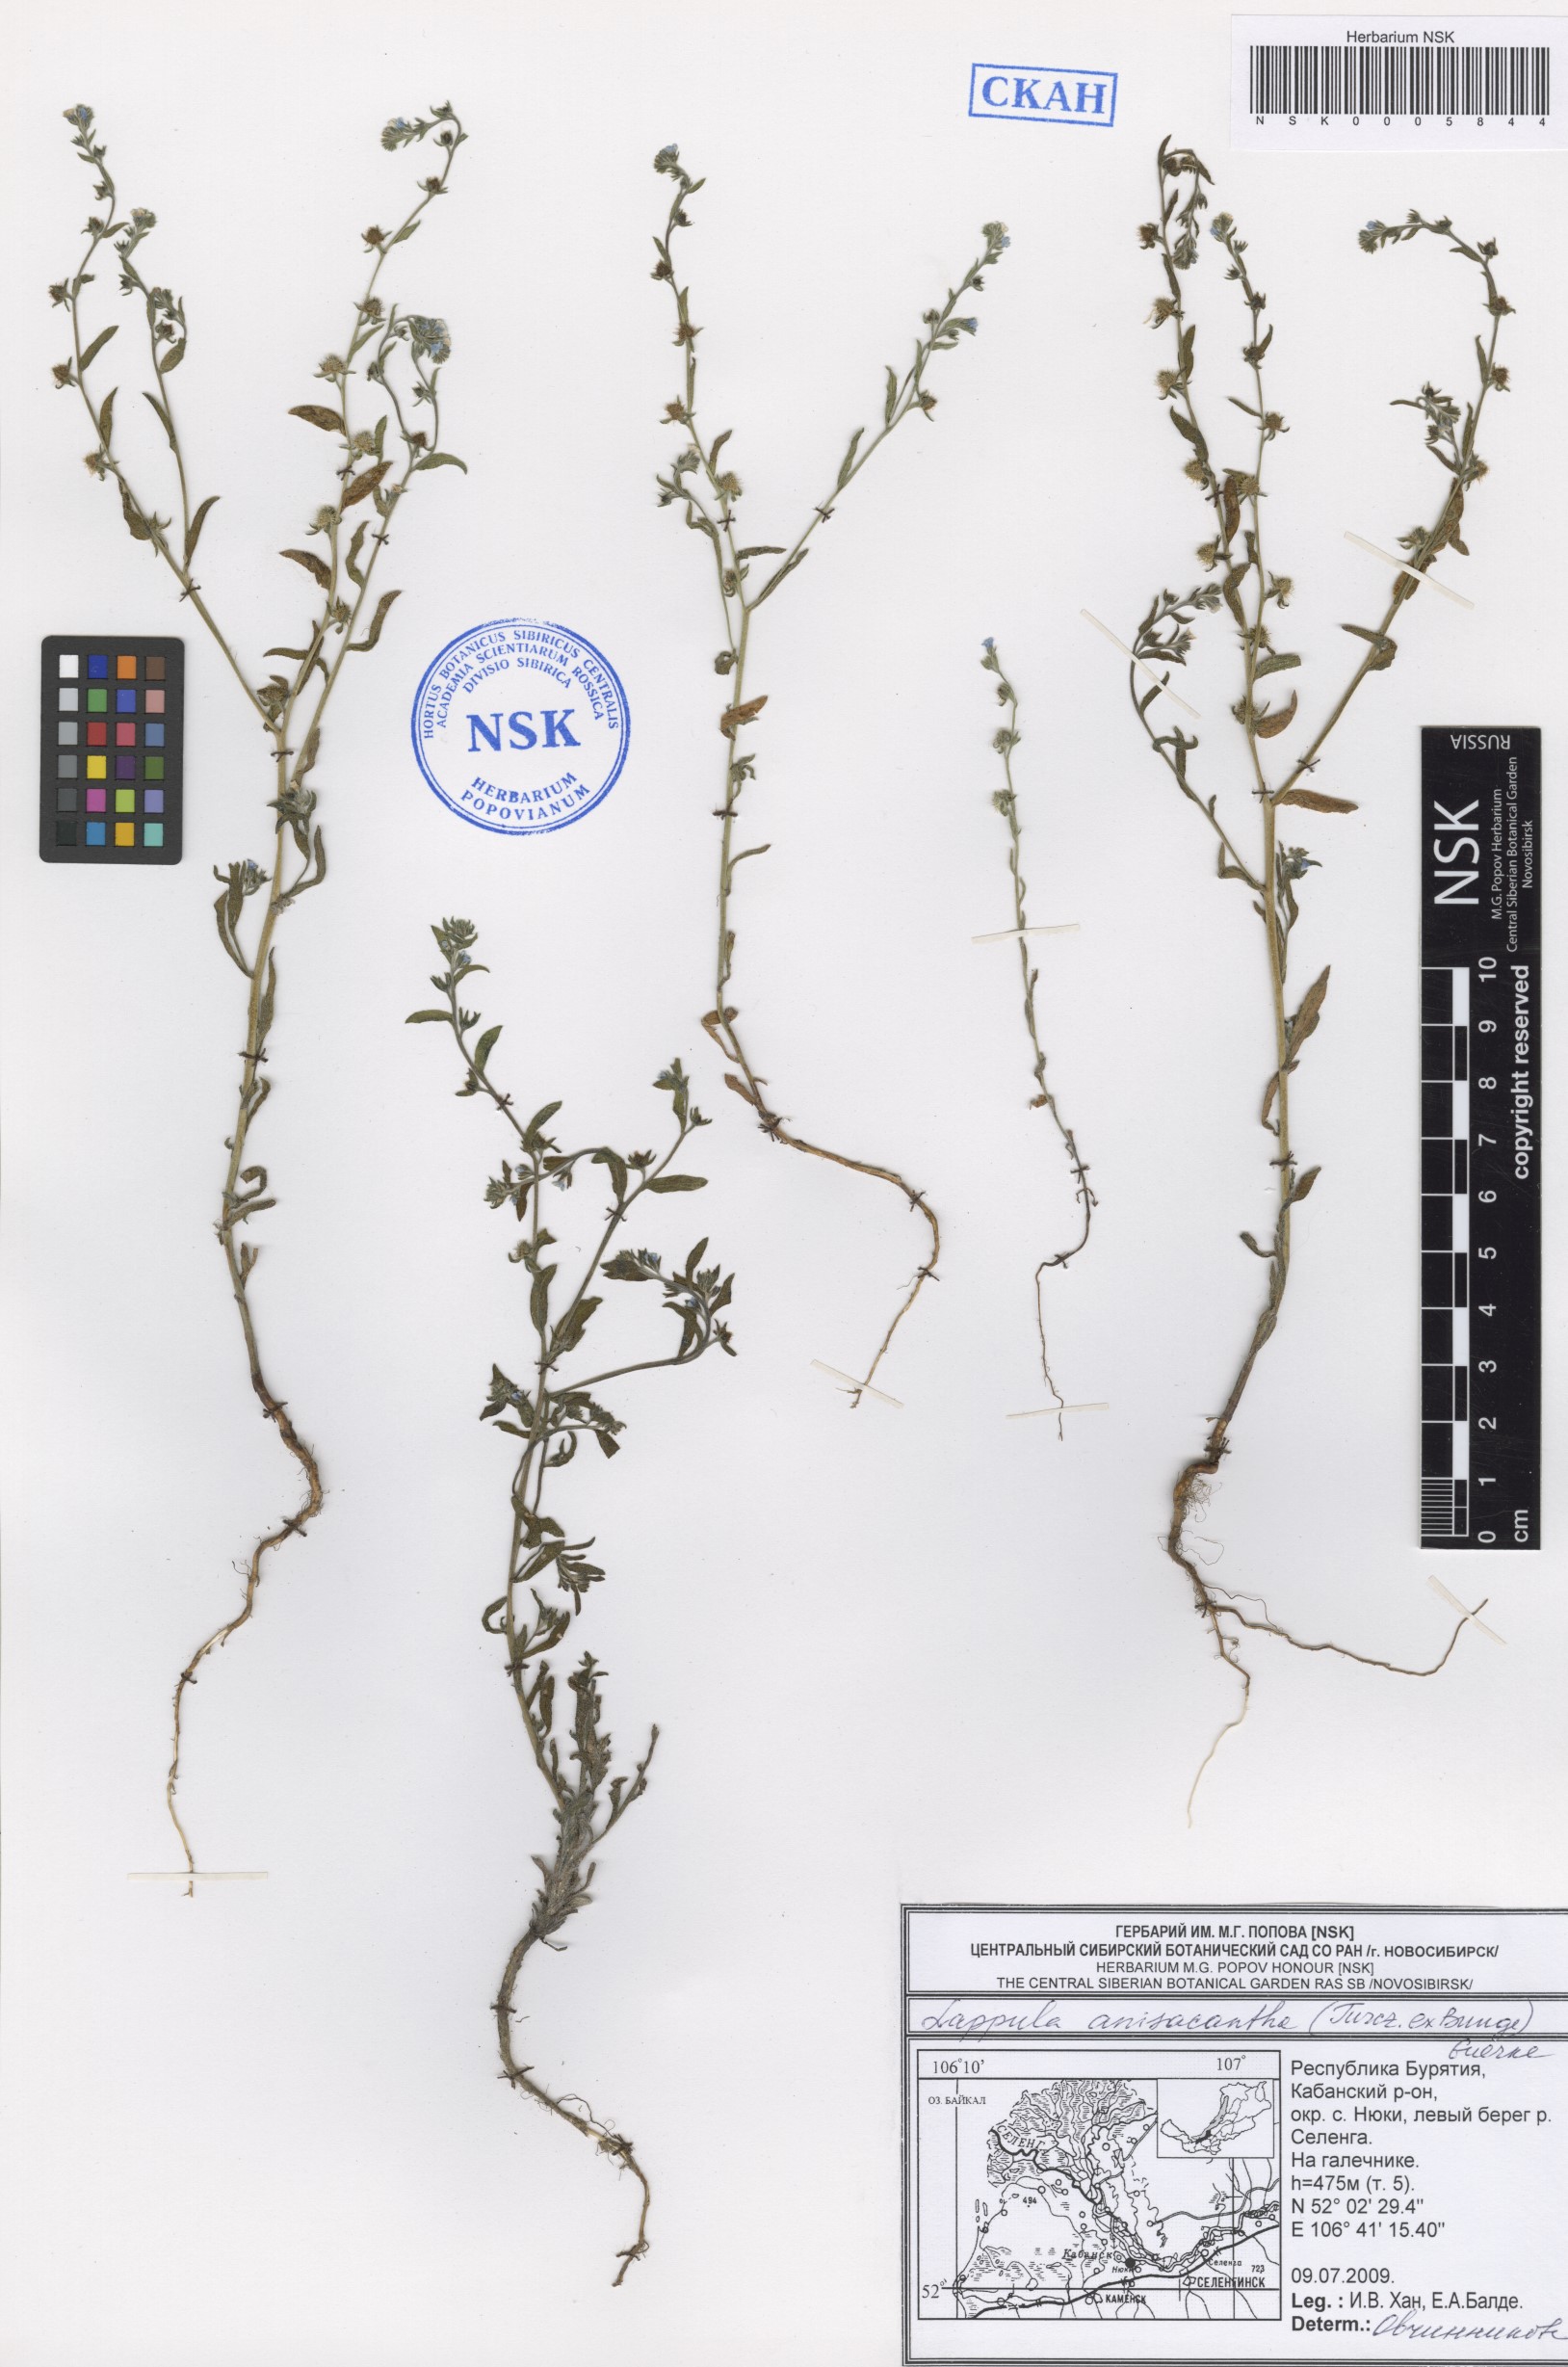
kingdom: Plantae
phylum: Tracheophyta
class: Magnoliopsida
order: Boraginales
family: Boraginaceae
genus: Lappula
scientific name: Lappula intermedia
